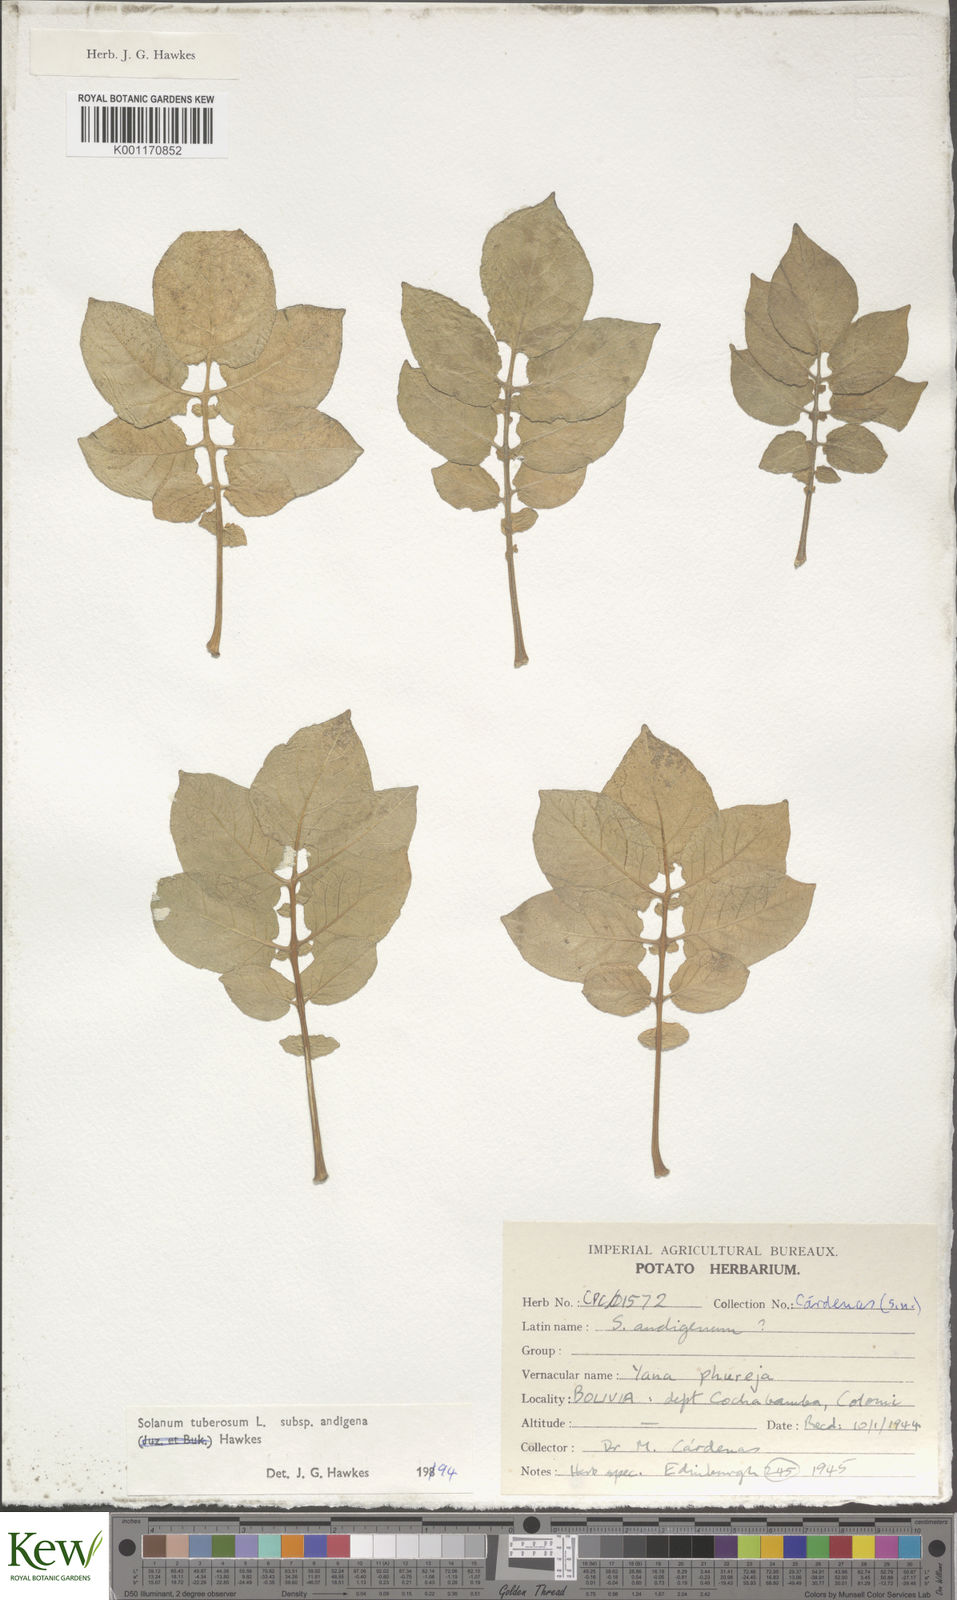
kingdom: Plantae
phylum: Tracheophyta
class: Magnoliopsida
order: Solanales
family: Solanaceae
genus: Solanum
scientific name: Solanum tuberosum
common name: Potato
